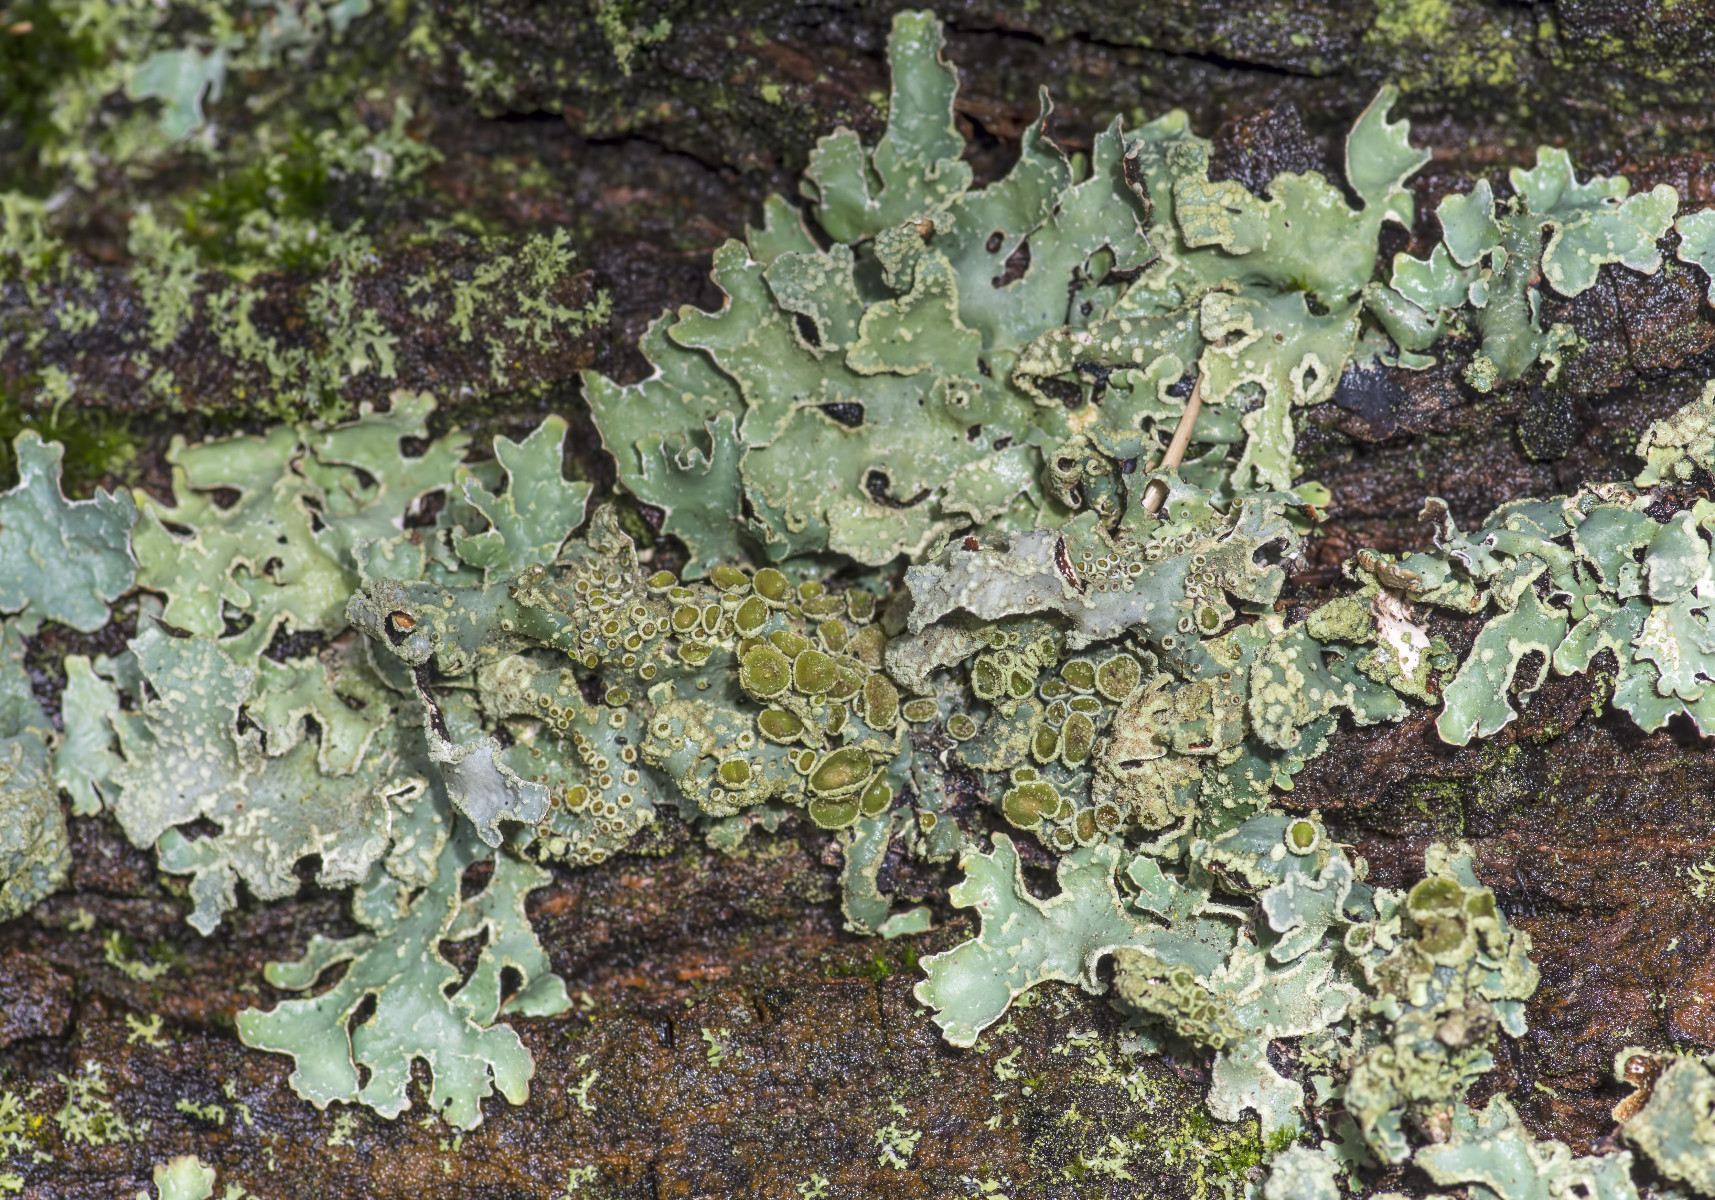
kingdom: Fungi
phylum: Ascomycota
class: Lecanoromycetes
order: Lecanorales
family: Parmeliaceae
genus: Parmelia
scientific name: Parmelia sulcata
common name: rynket skållav
